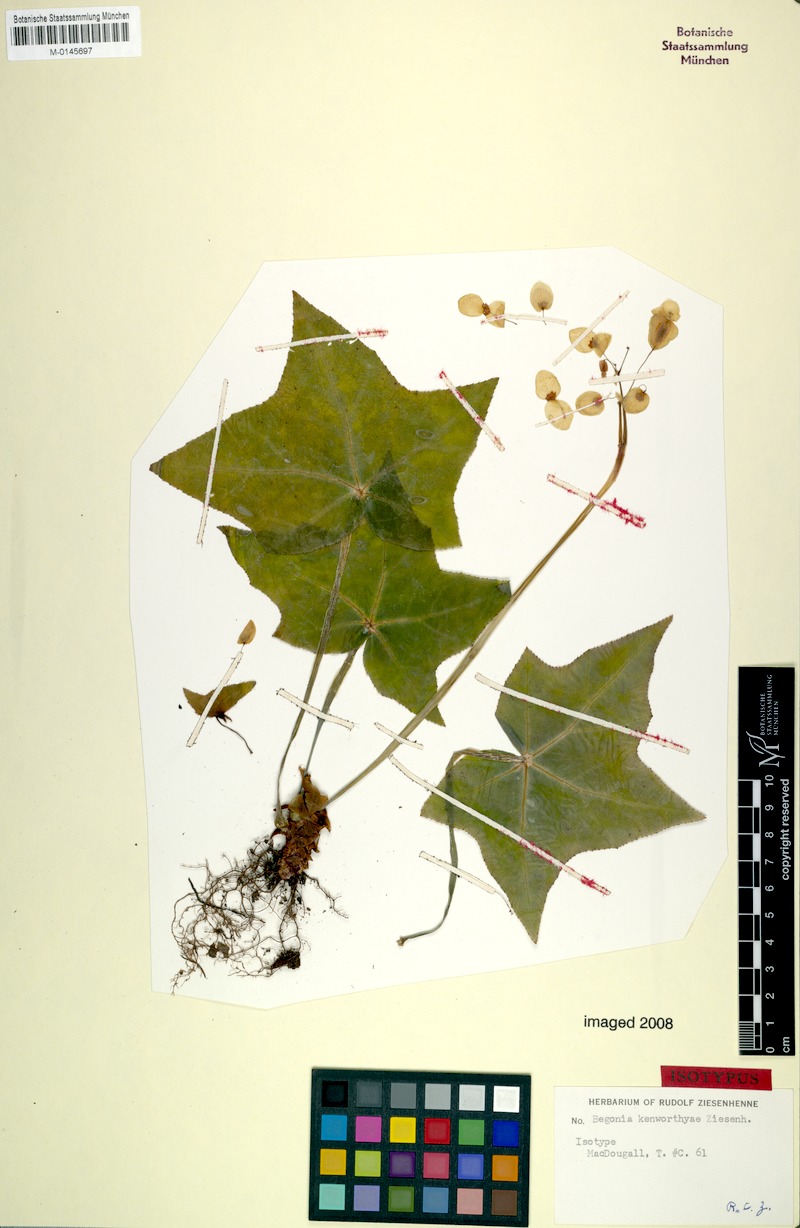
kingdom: Plantae
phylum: Tracheophyta
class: Magnoliopsida
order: Cucurbitales
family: Begoniaceae
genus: Begonia
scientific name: Begonia kenworthyi
